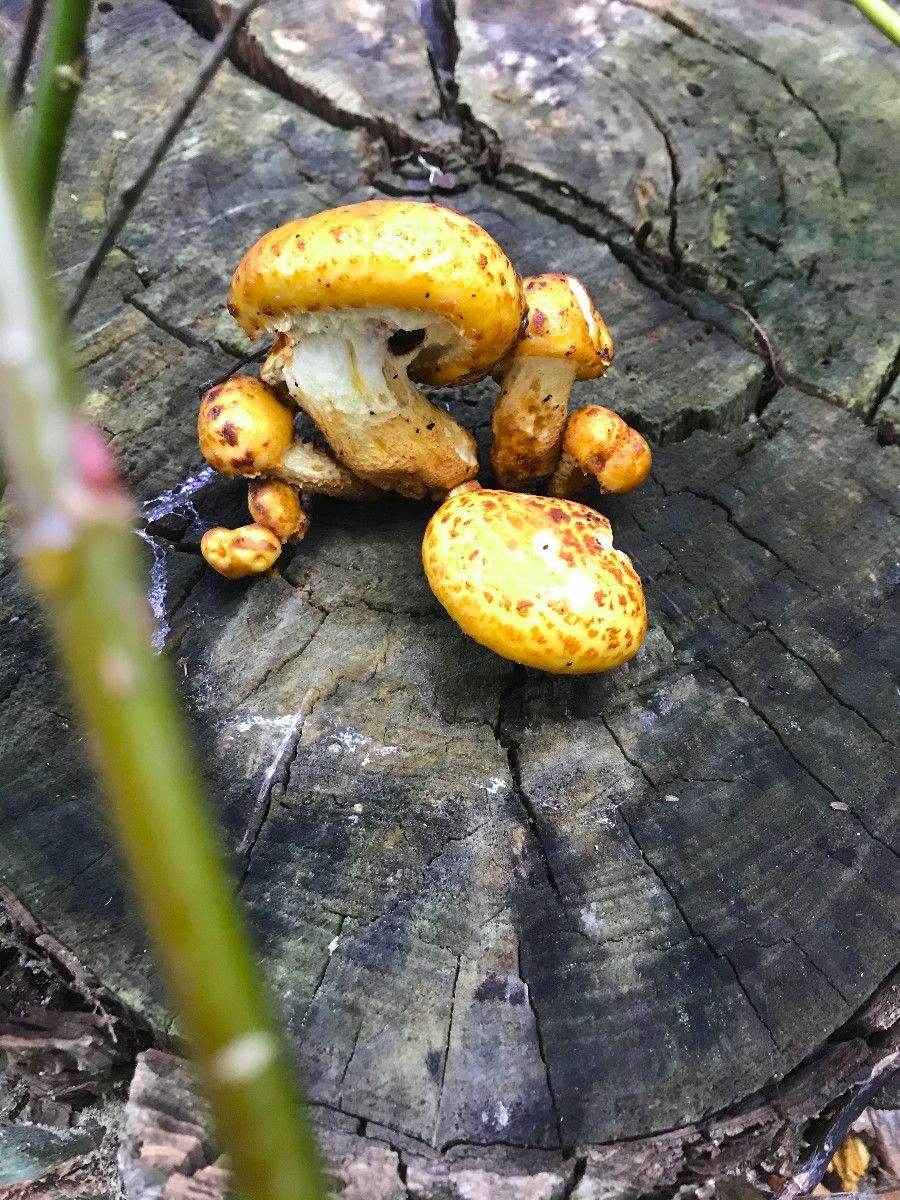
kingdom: Fungi
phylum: Basidiomycota
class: Agaricomycetes
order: Agaricales
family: Strophariaceae
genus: Pholiota
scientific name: Pholiota limonella
